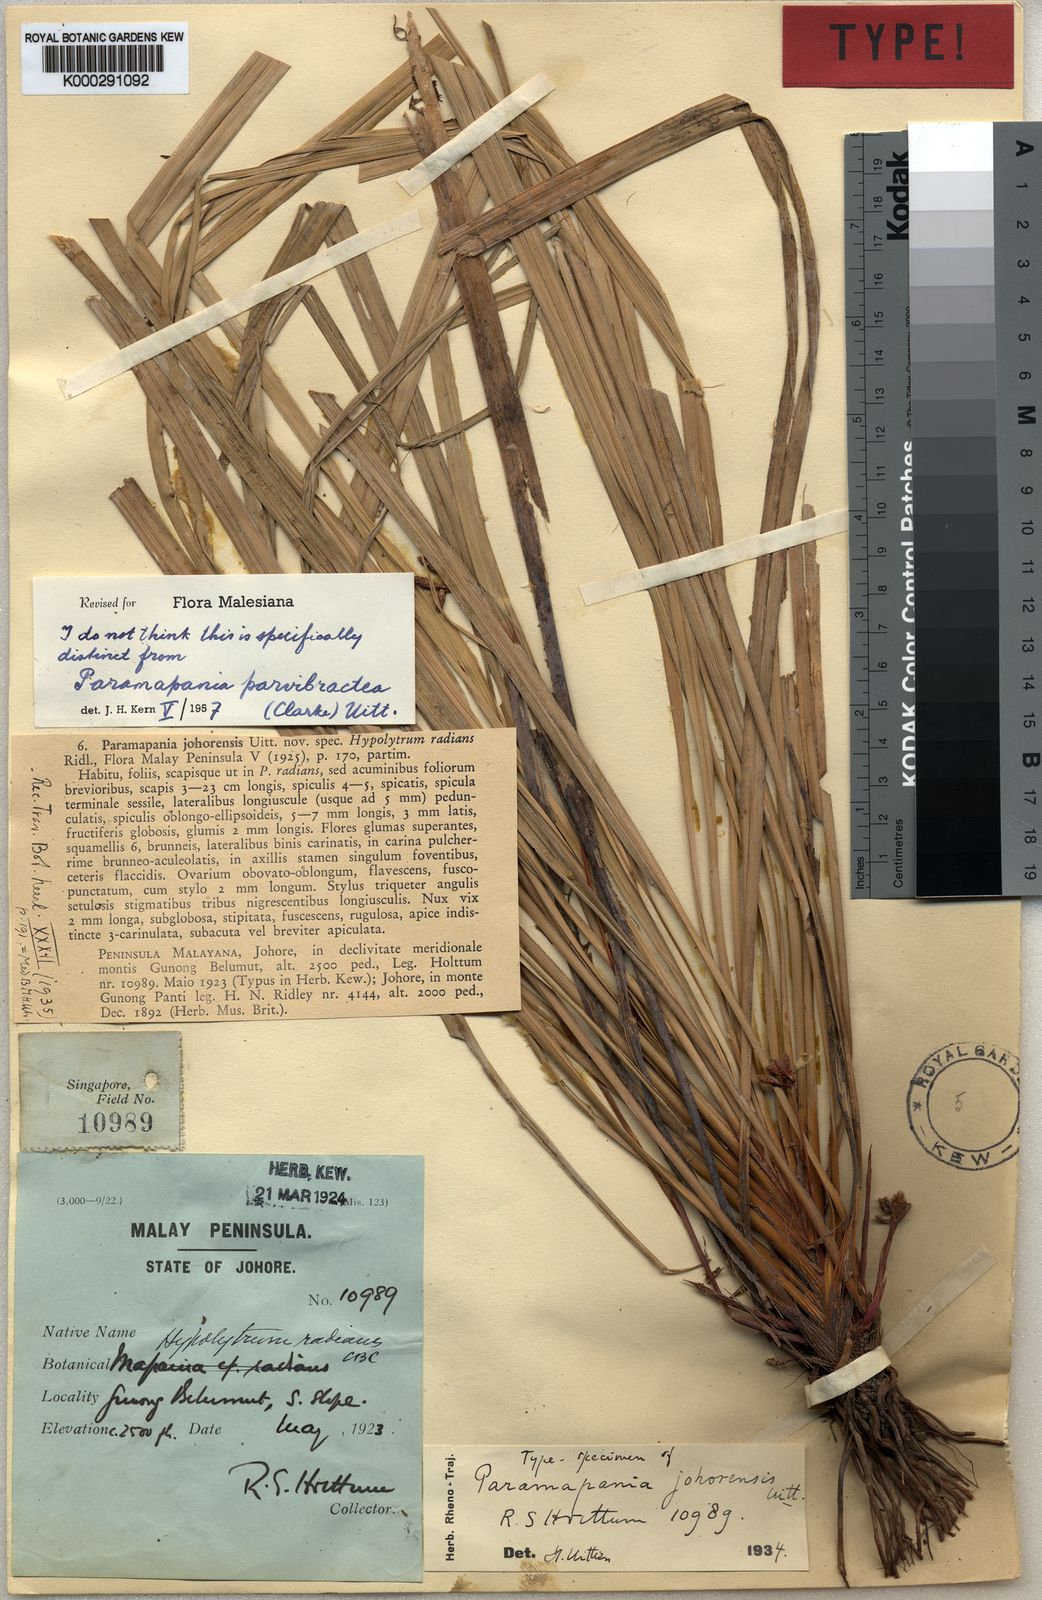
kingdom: Plantae
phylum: Tracheophyta
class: Liliopsida
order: Poales
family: Cyperaceae
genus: Paramapania
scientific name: Paramapania parvibractea
